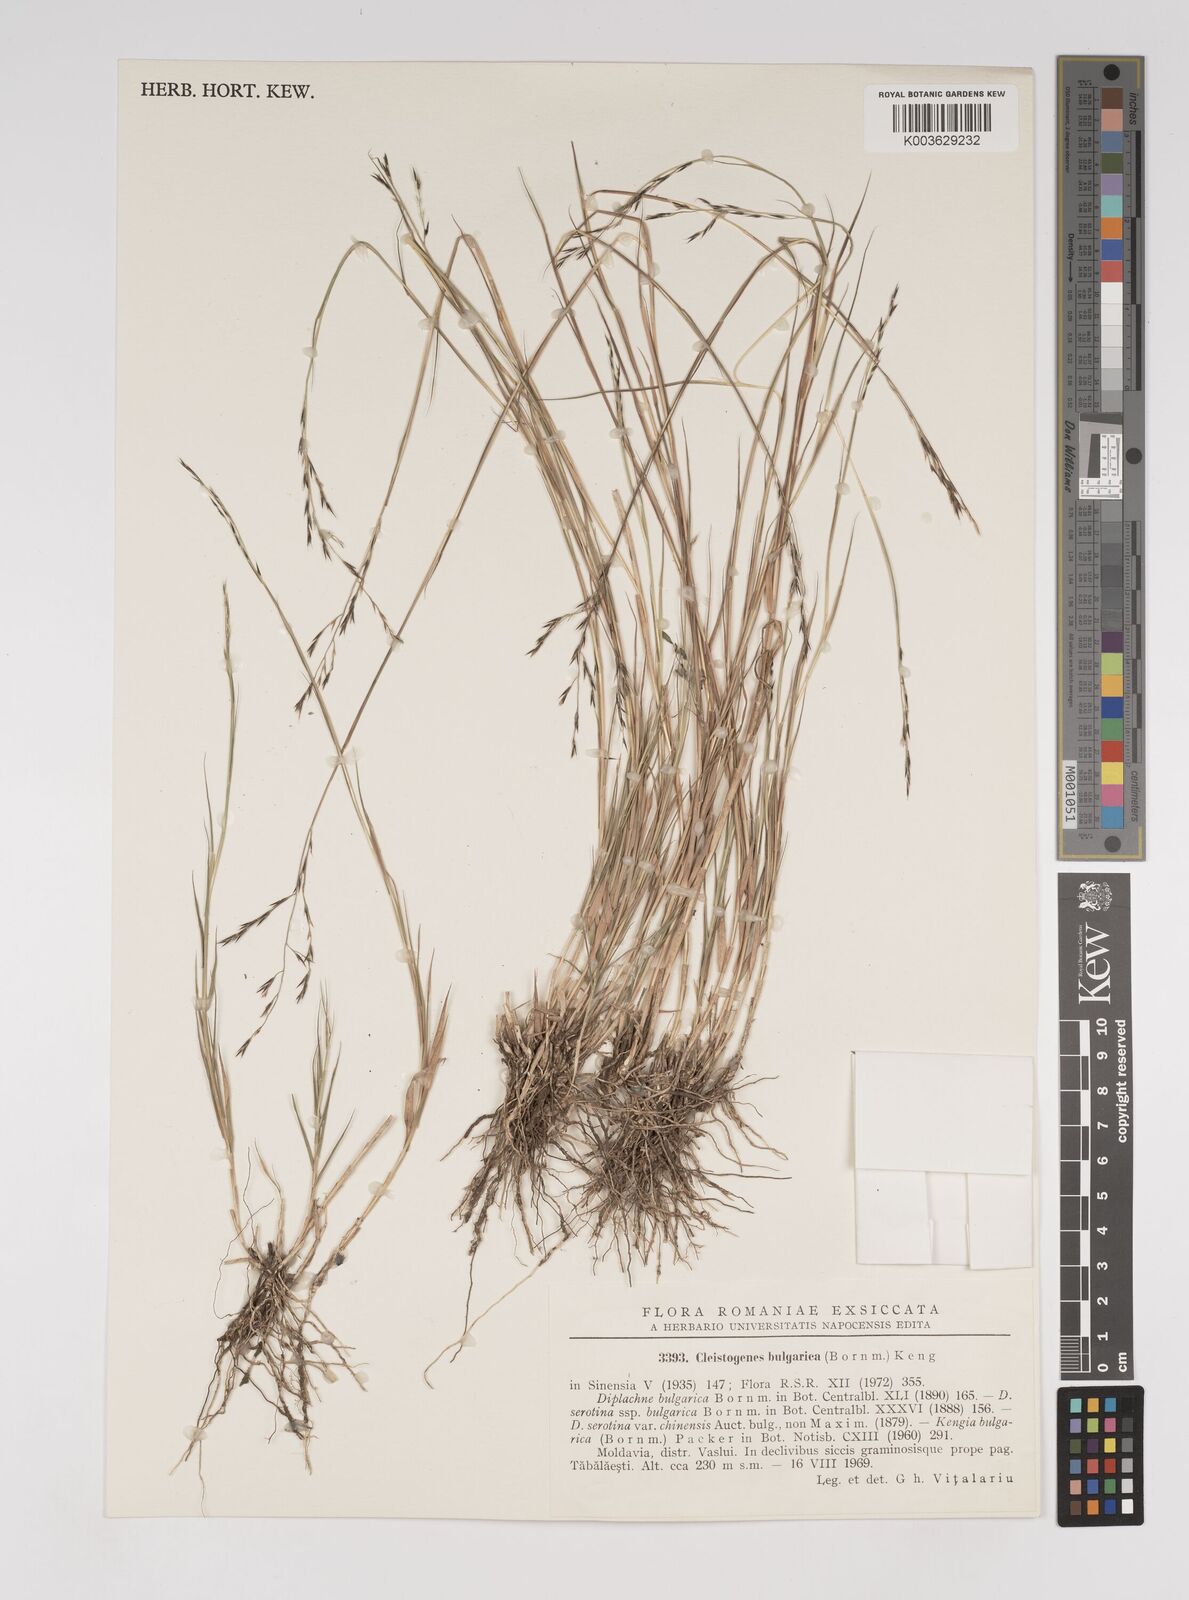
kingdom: Plantae
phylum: Tracheophyta
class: Liliopsida
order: Poales
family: Poaceae
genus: Cleistogenes
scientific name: Cleistogenes serotina
